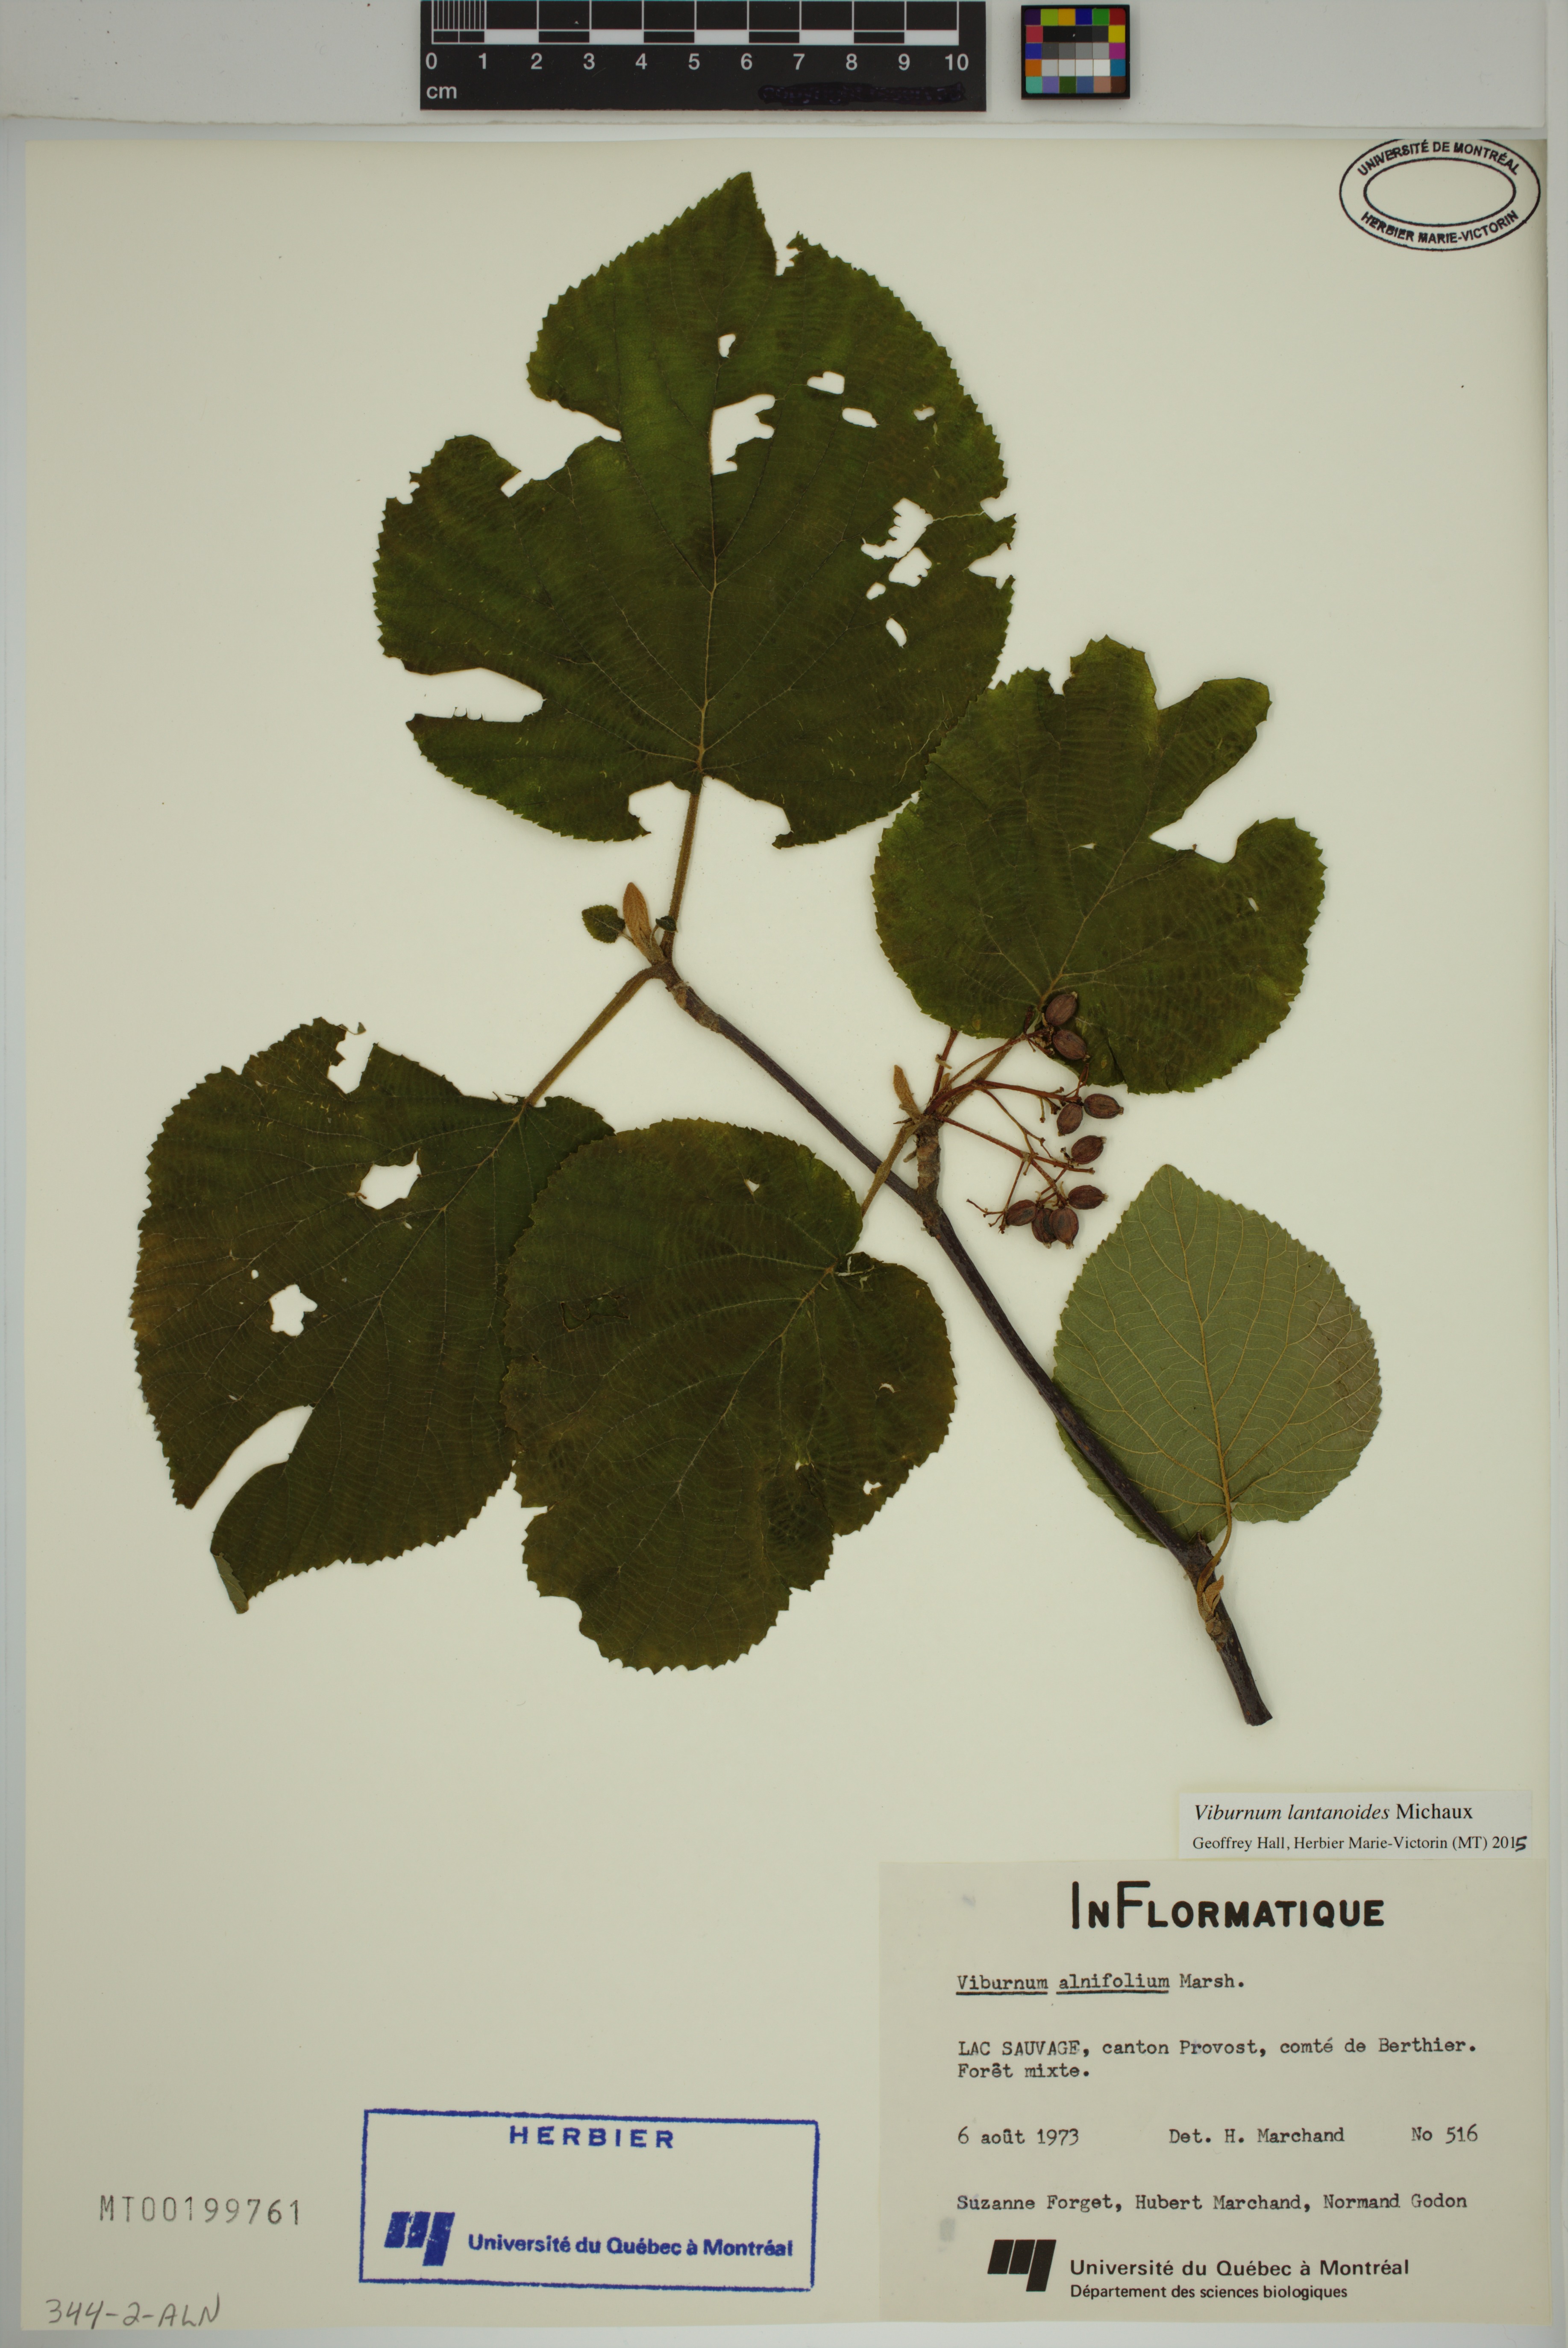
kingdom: Plantae
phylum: Tracheophyta
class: Magnoliopsida
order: Dipsacales
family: Viburnaceae
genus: Viburnum
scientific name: Viburnum lantanoides
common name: Hobblebush
